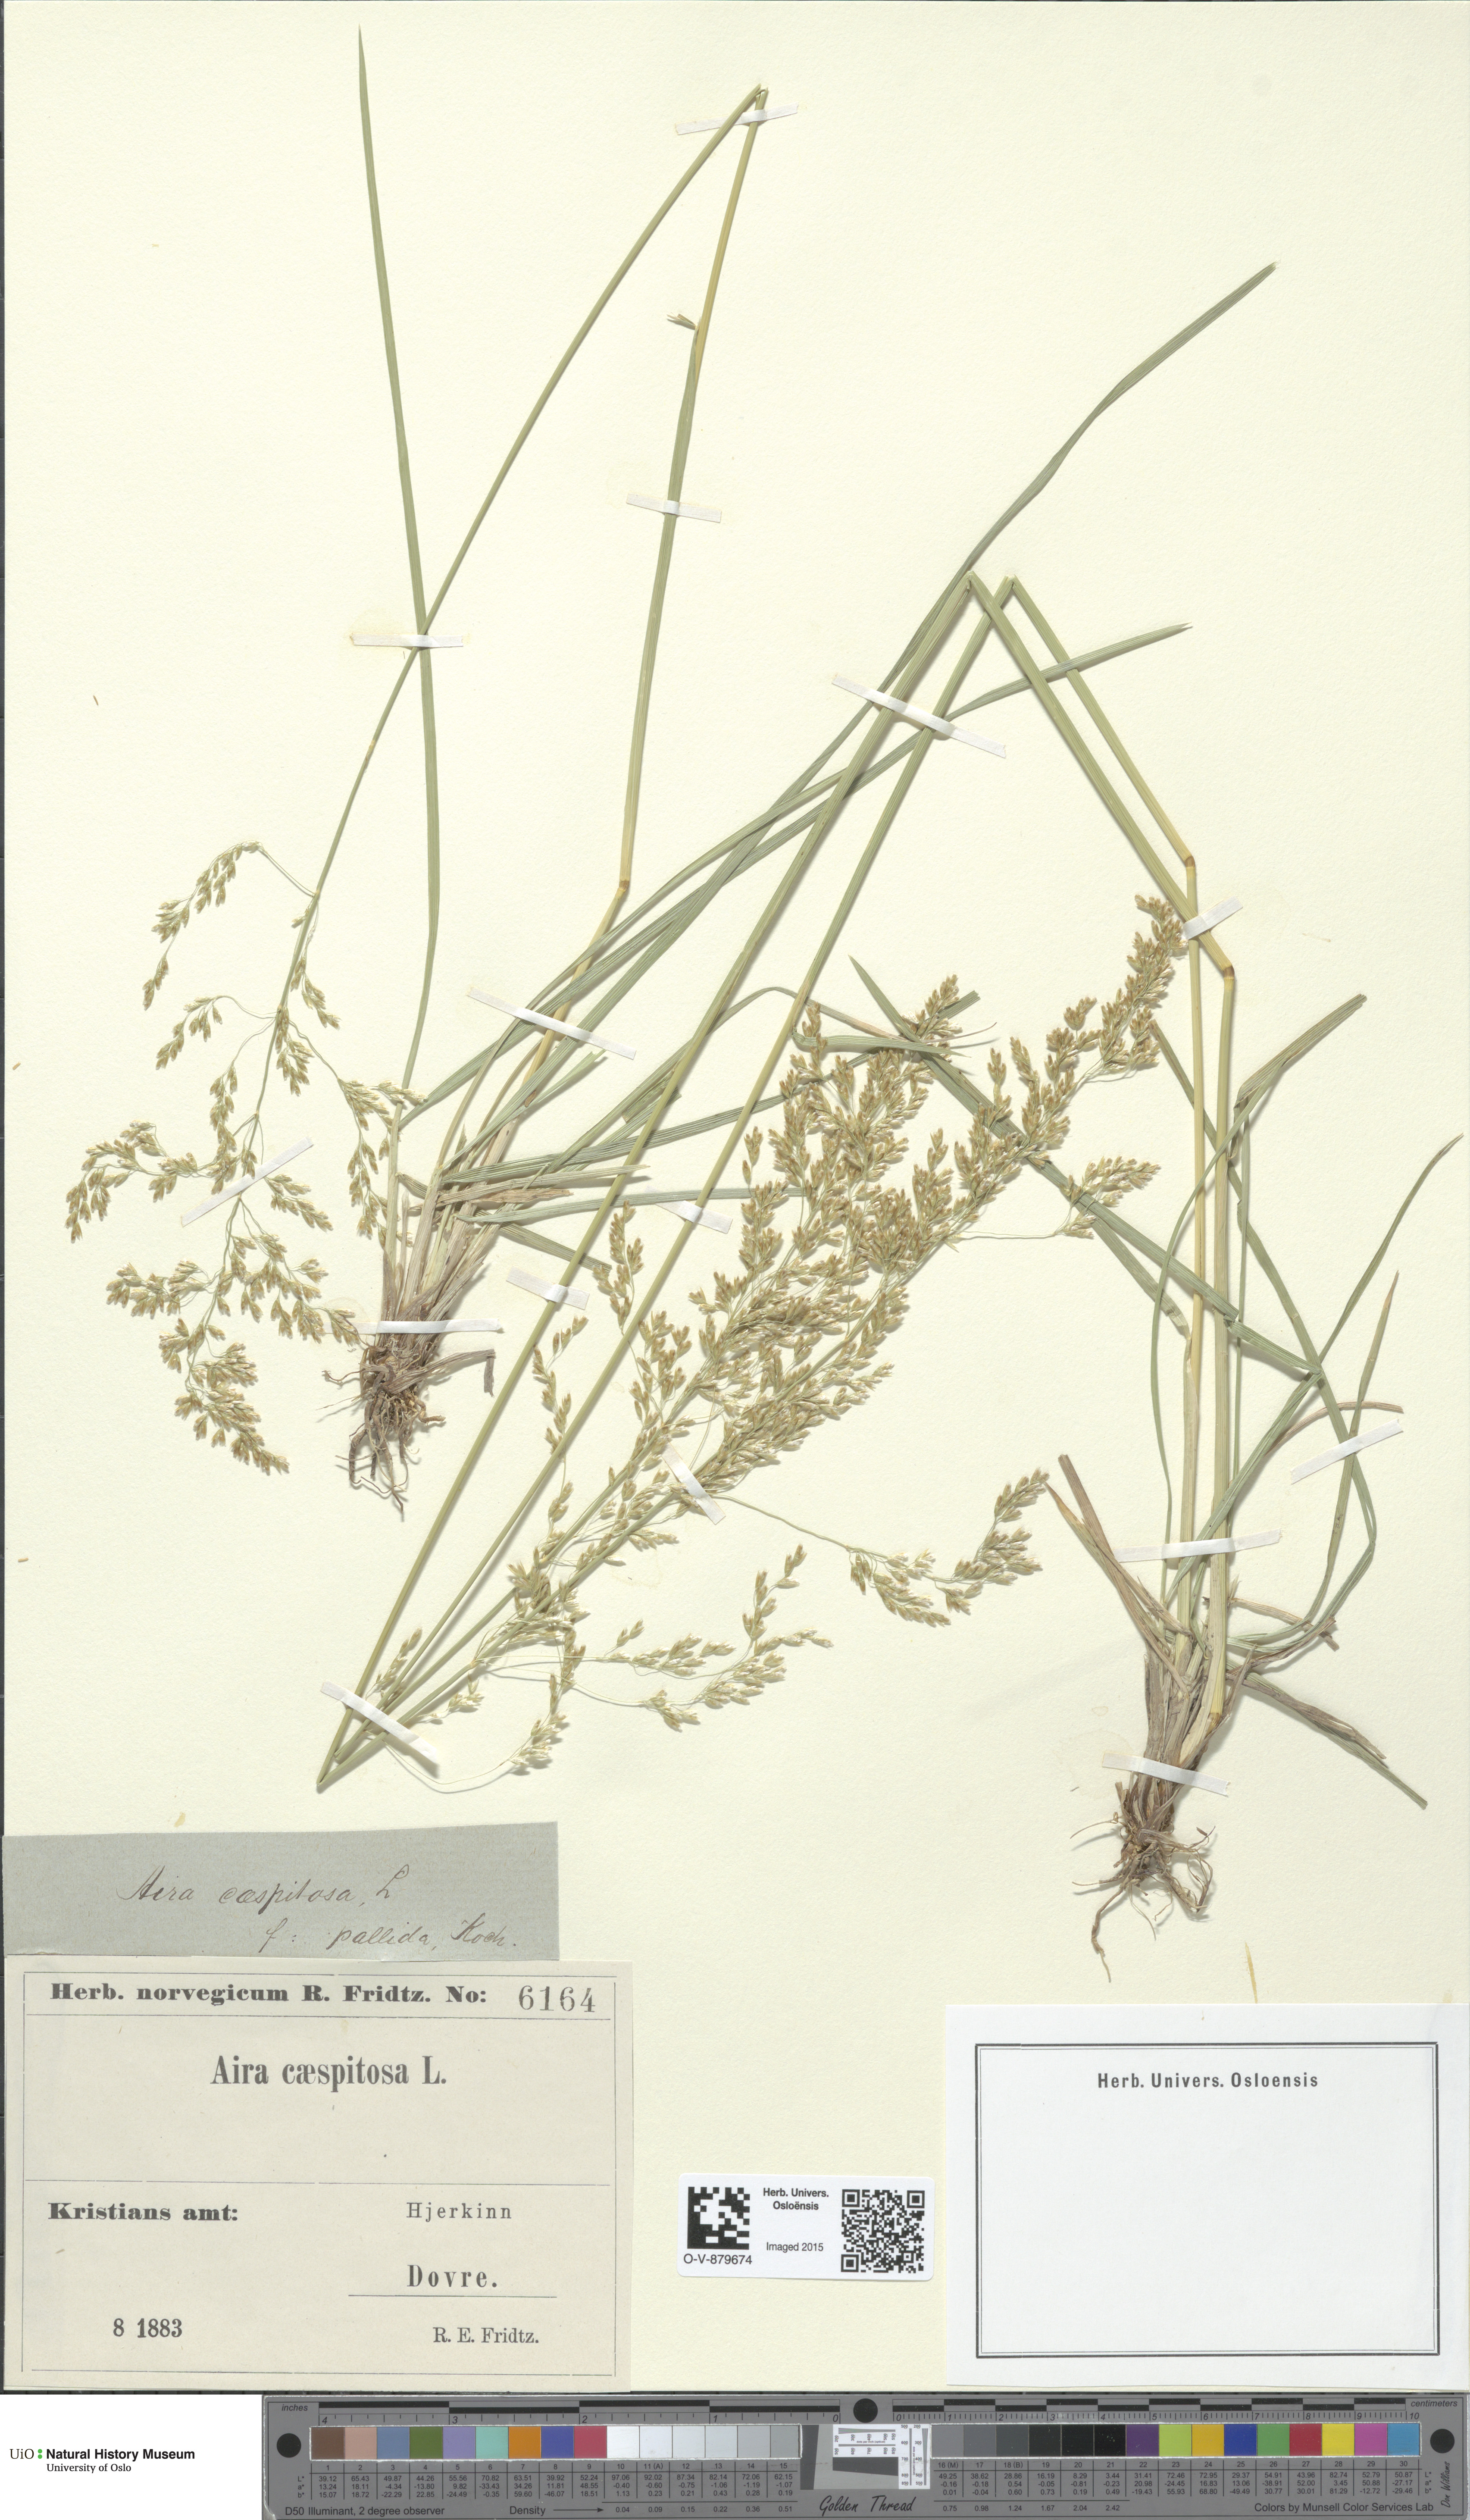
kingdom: Plantae
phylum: Tracheophyta
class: Liliopsida
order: Poales
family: Poaceae
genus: Deschampsia
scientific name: Deschampsia cespitosa
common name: Tufted hair-grass
